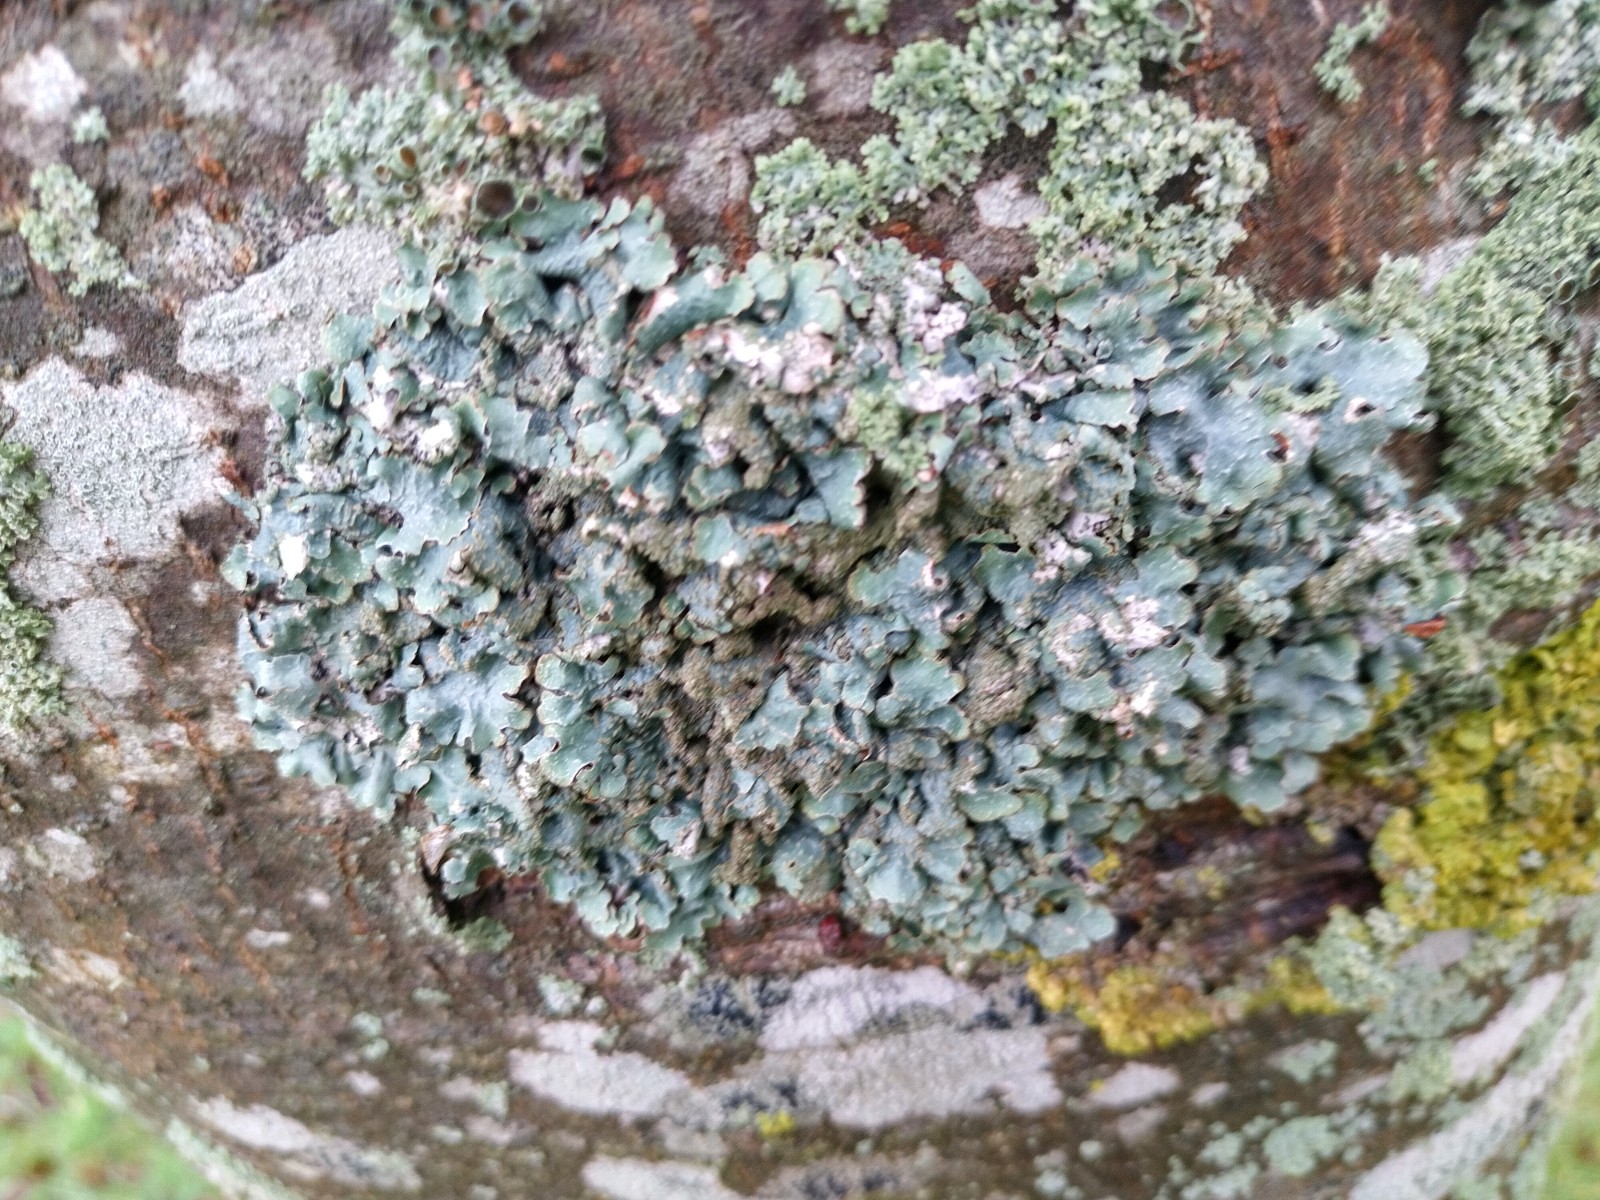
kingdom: Fungi
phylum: Ascomycota
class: Lecanoromycetes
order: Lecanorales
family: Parmeliaceae
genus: Parmelia
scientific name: Parmelia sulcata
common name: rynket skållav
